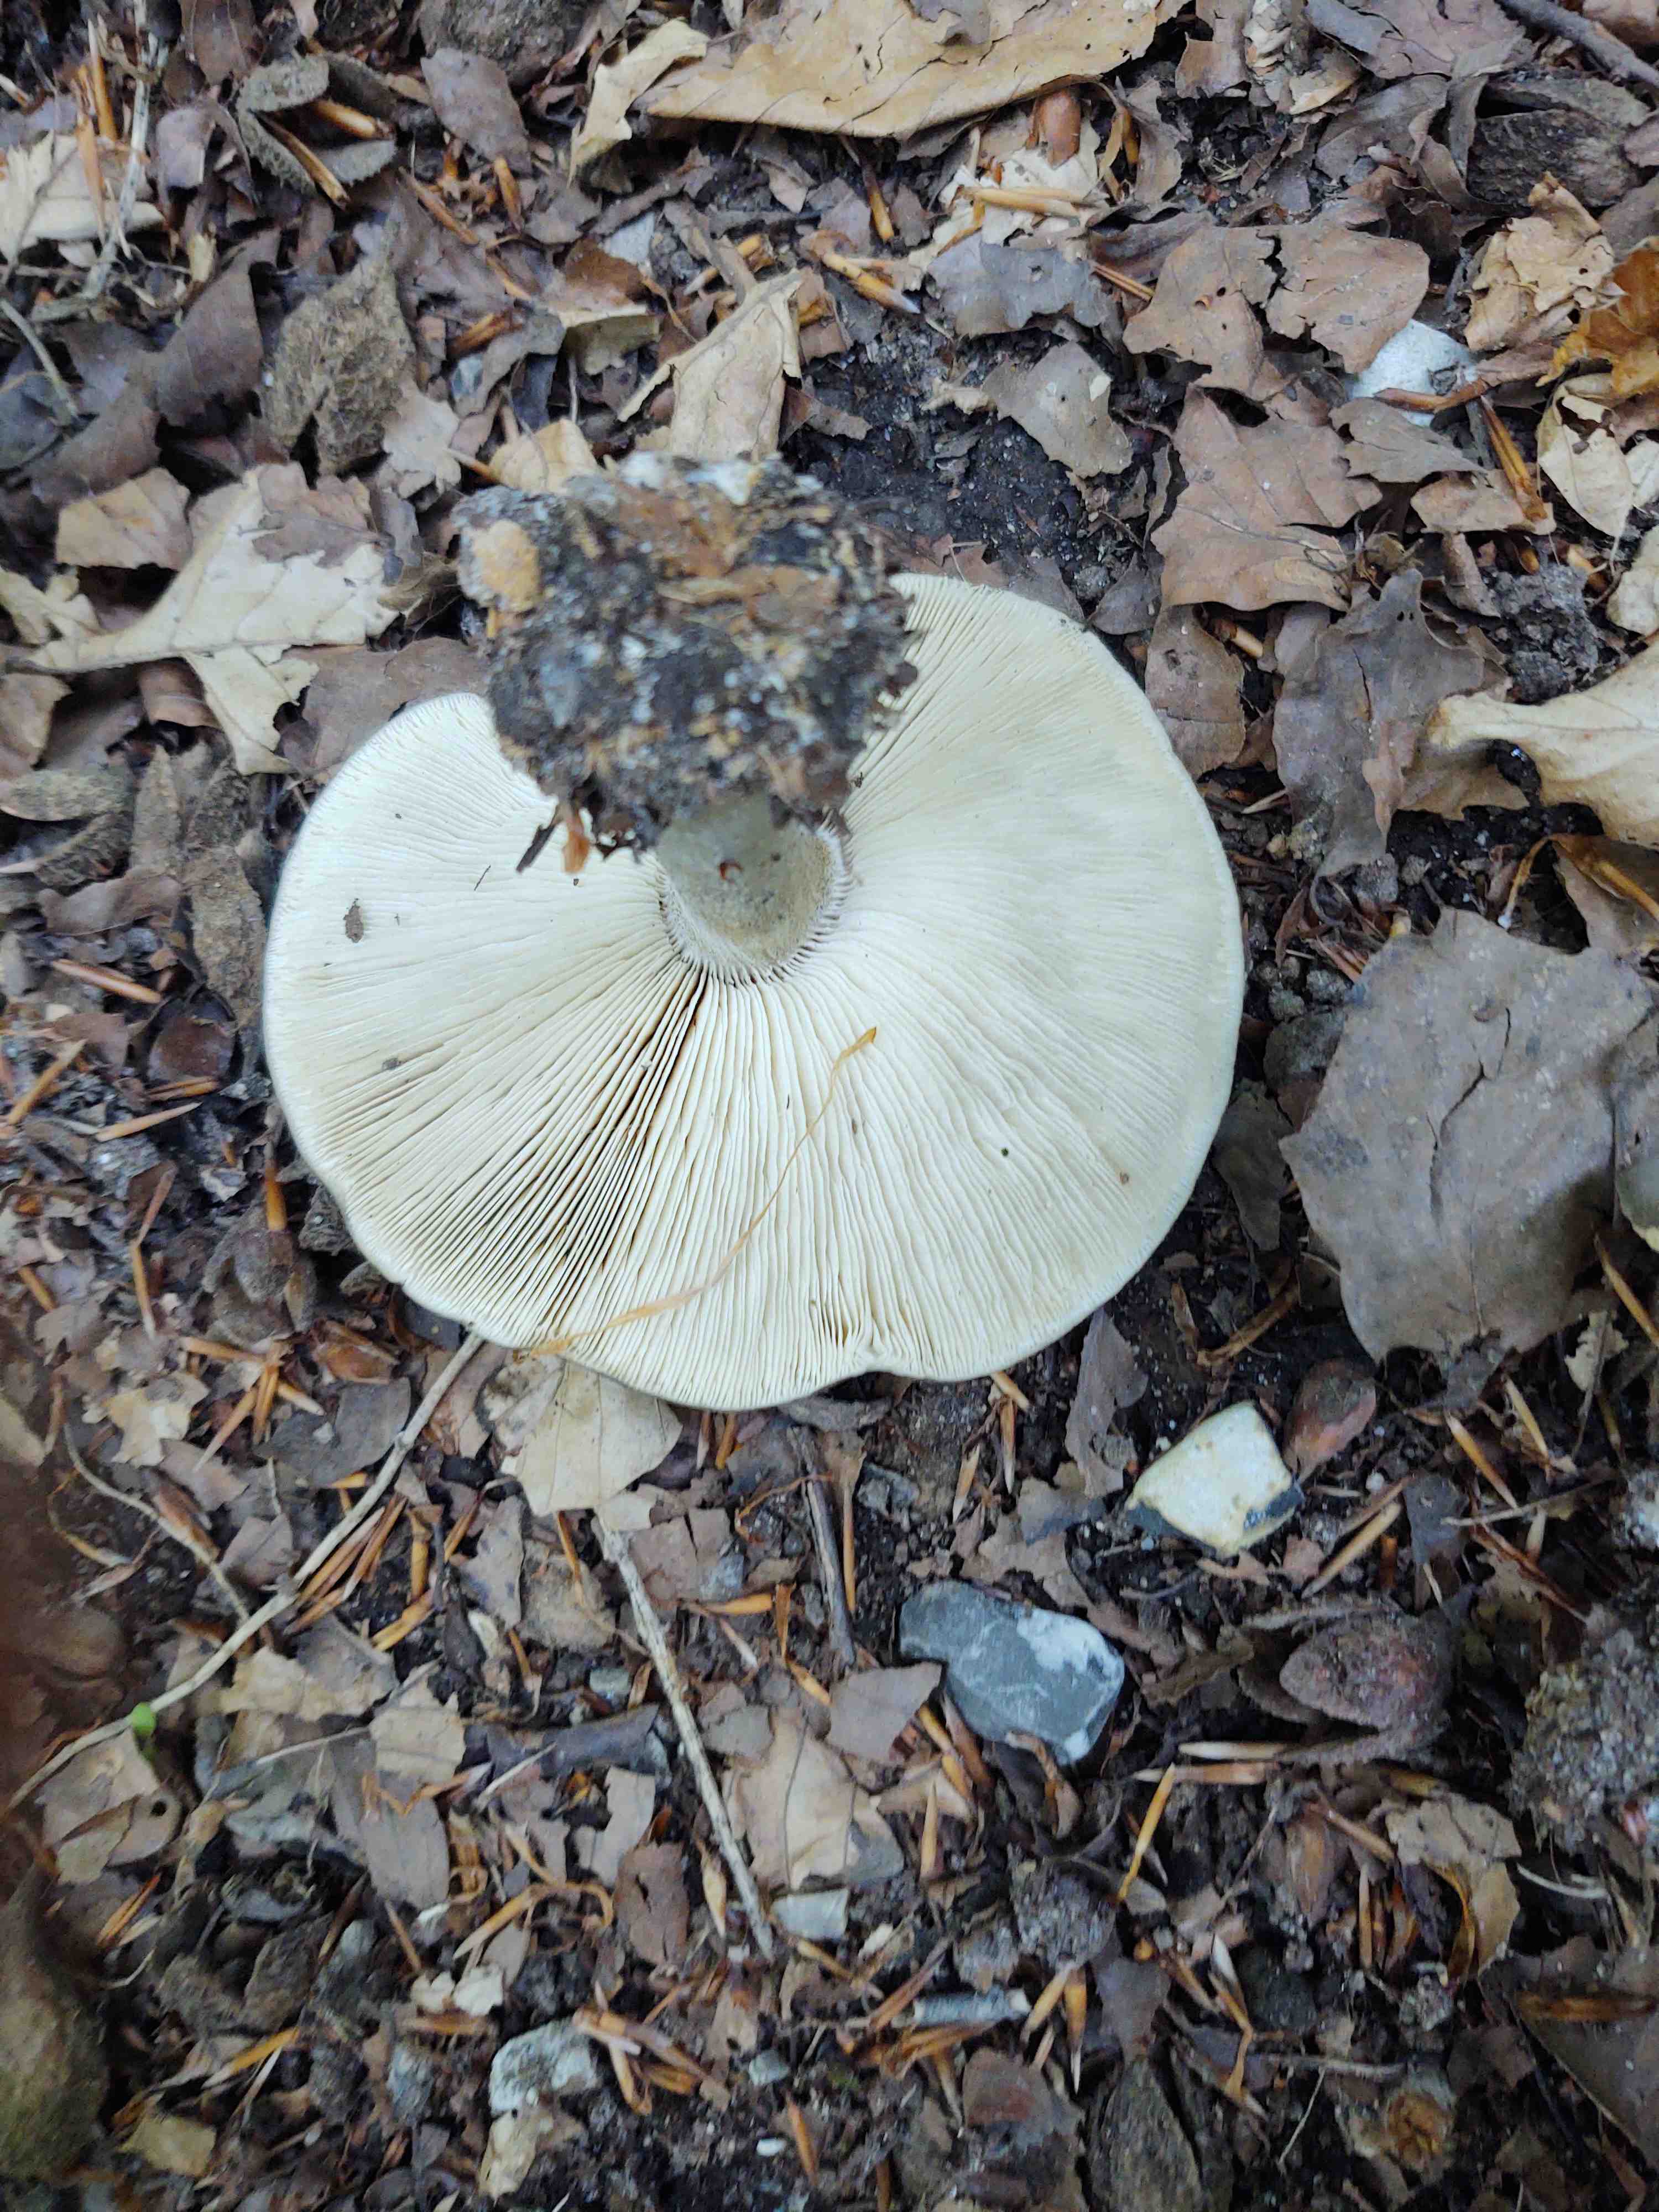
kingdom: Fungi
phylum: Basidiomycota
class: Agaricomycetes
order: Agaricales
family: Tricholomataceae
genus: Melanoleuca
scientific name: Melanoleuca
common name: munkehat
